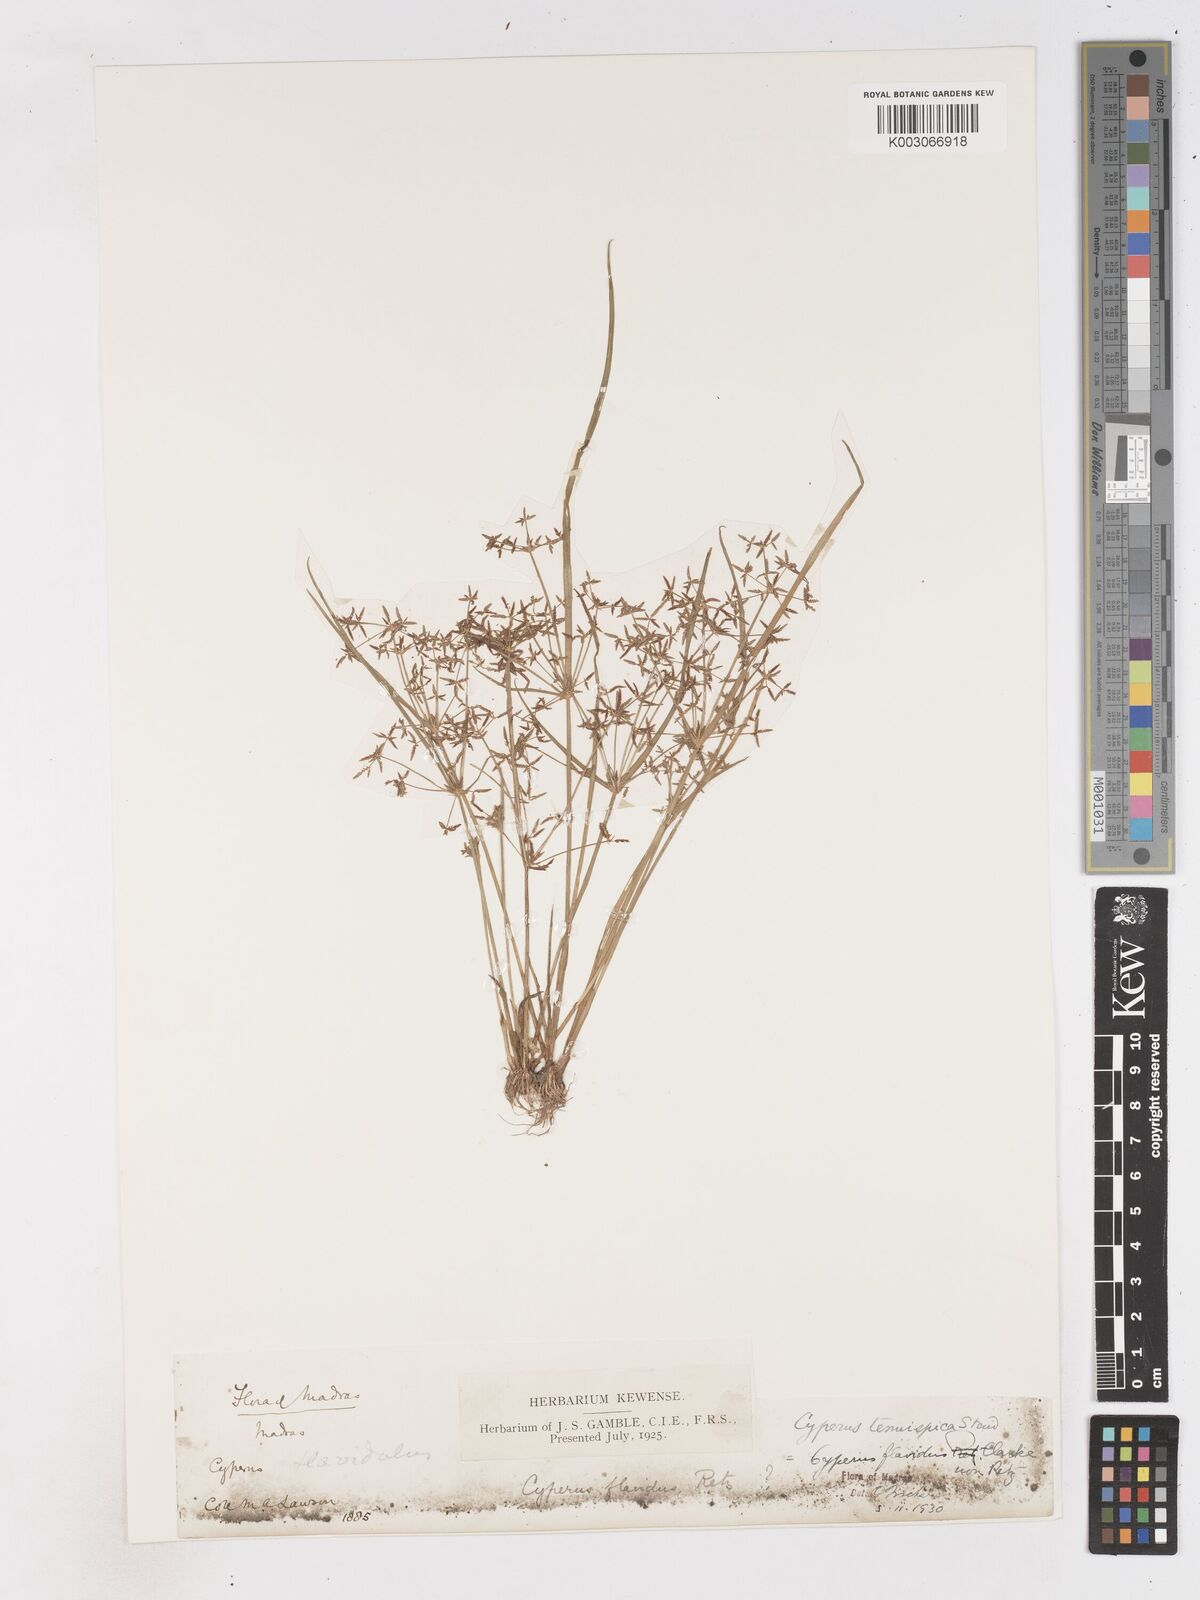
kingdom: Plantae
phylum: Tracheophyta
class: Liliopsida
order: Poales
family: Cyperaceae
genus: Cyperus
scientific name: Cyperus tenuispica
